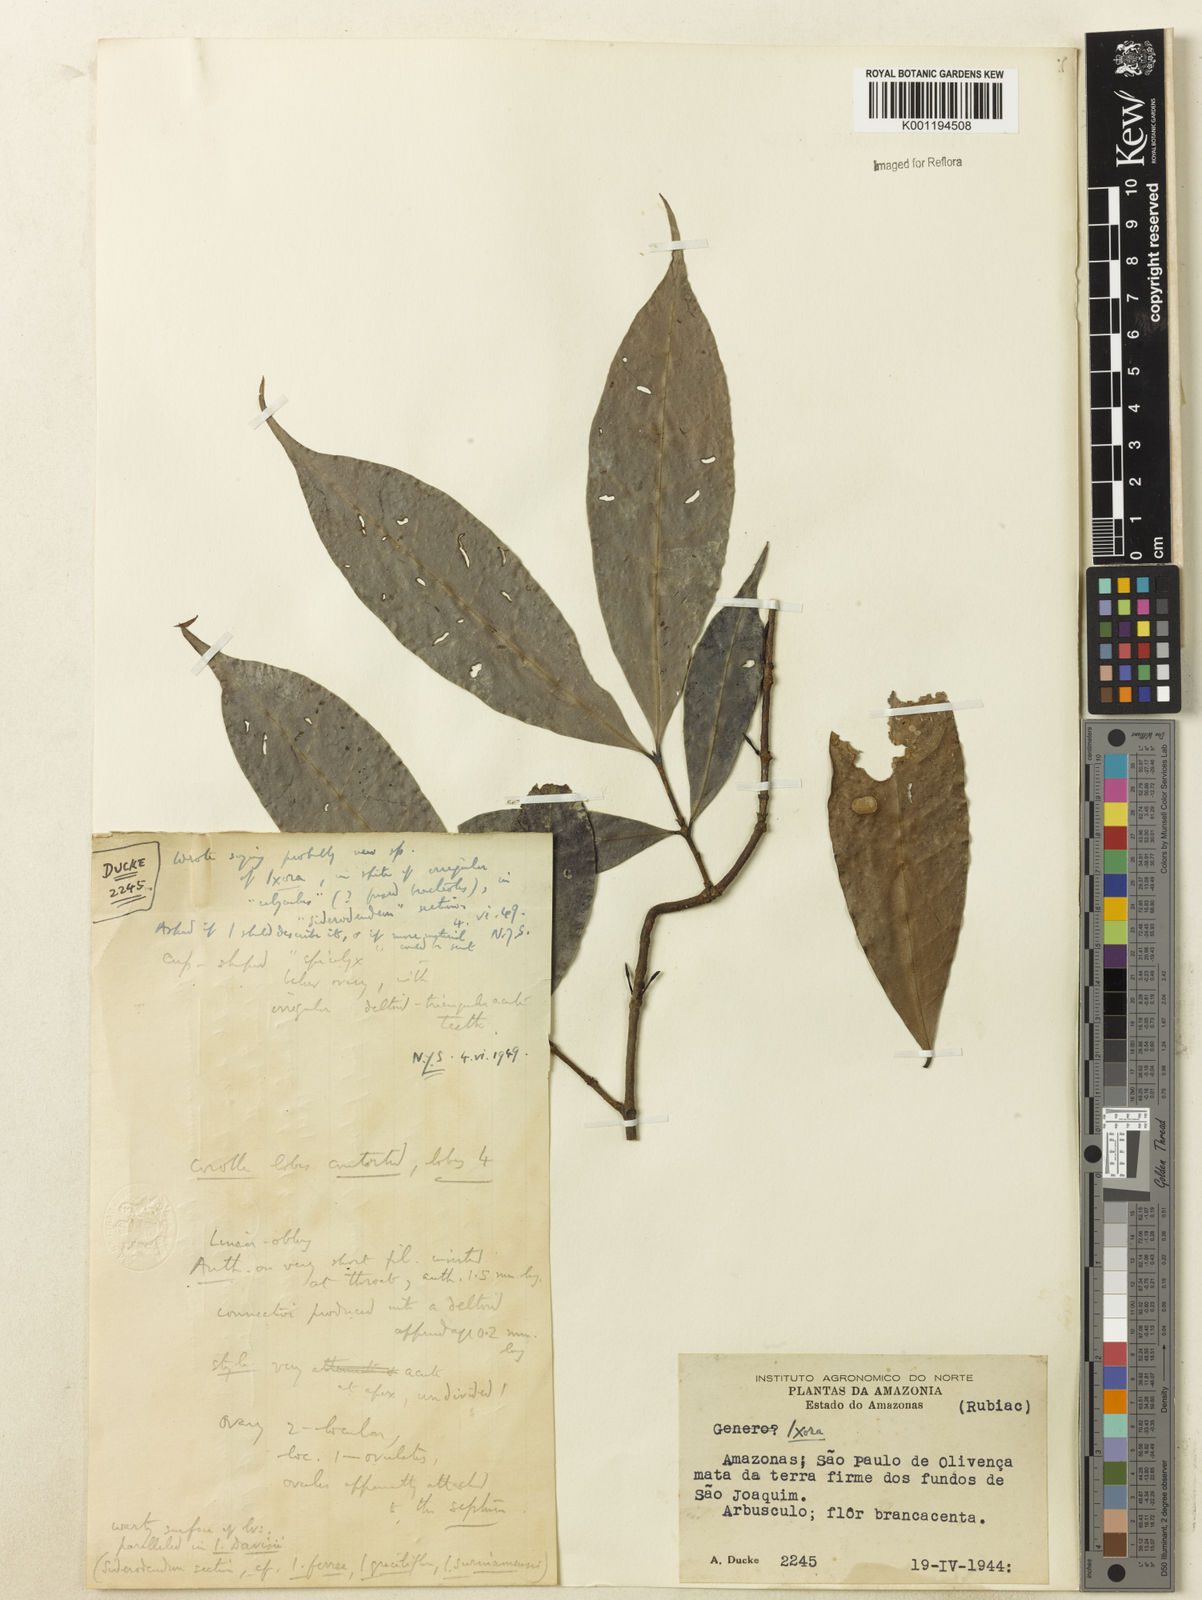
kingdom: Plantae
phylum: Tracheophyta
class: Magnoliopsida
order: Gentianales
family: Rubiaceae
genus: Ixora
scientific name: Ixora
